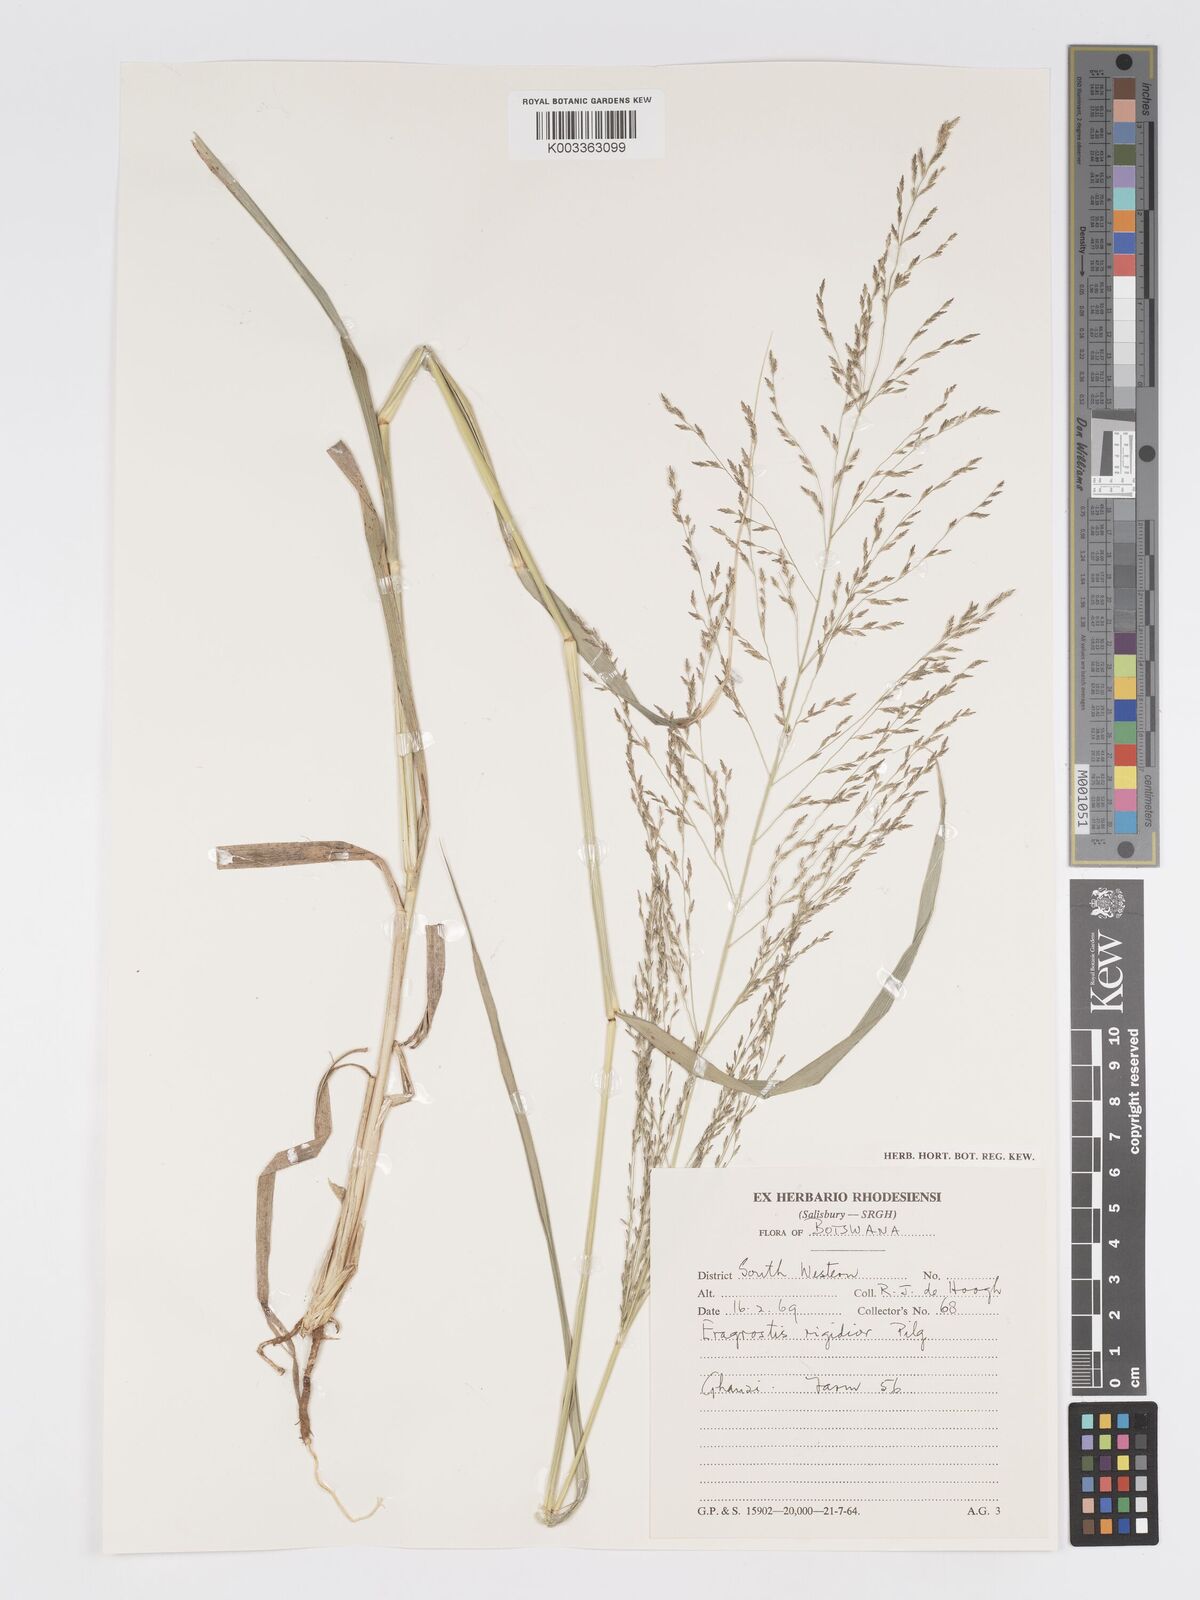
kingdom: Plantae
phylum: Tracheophyta
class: Liliopsida
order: Poales
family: Poaceae
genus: Eragrostis
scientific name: Eragrostis cylindriflora
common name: Cylinderflower lovegrass
